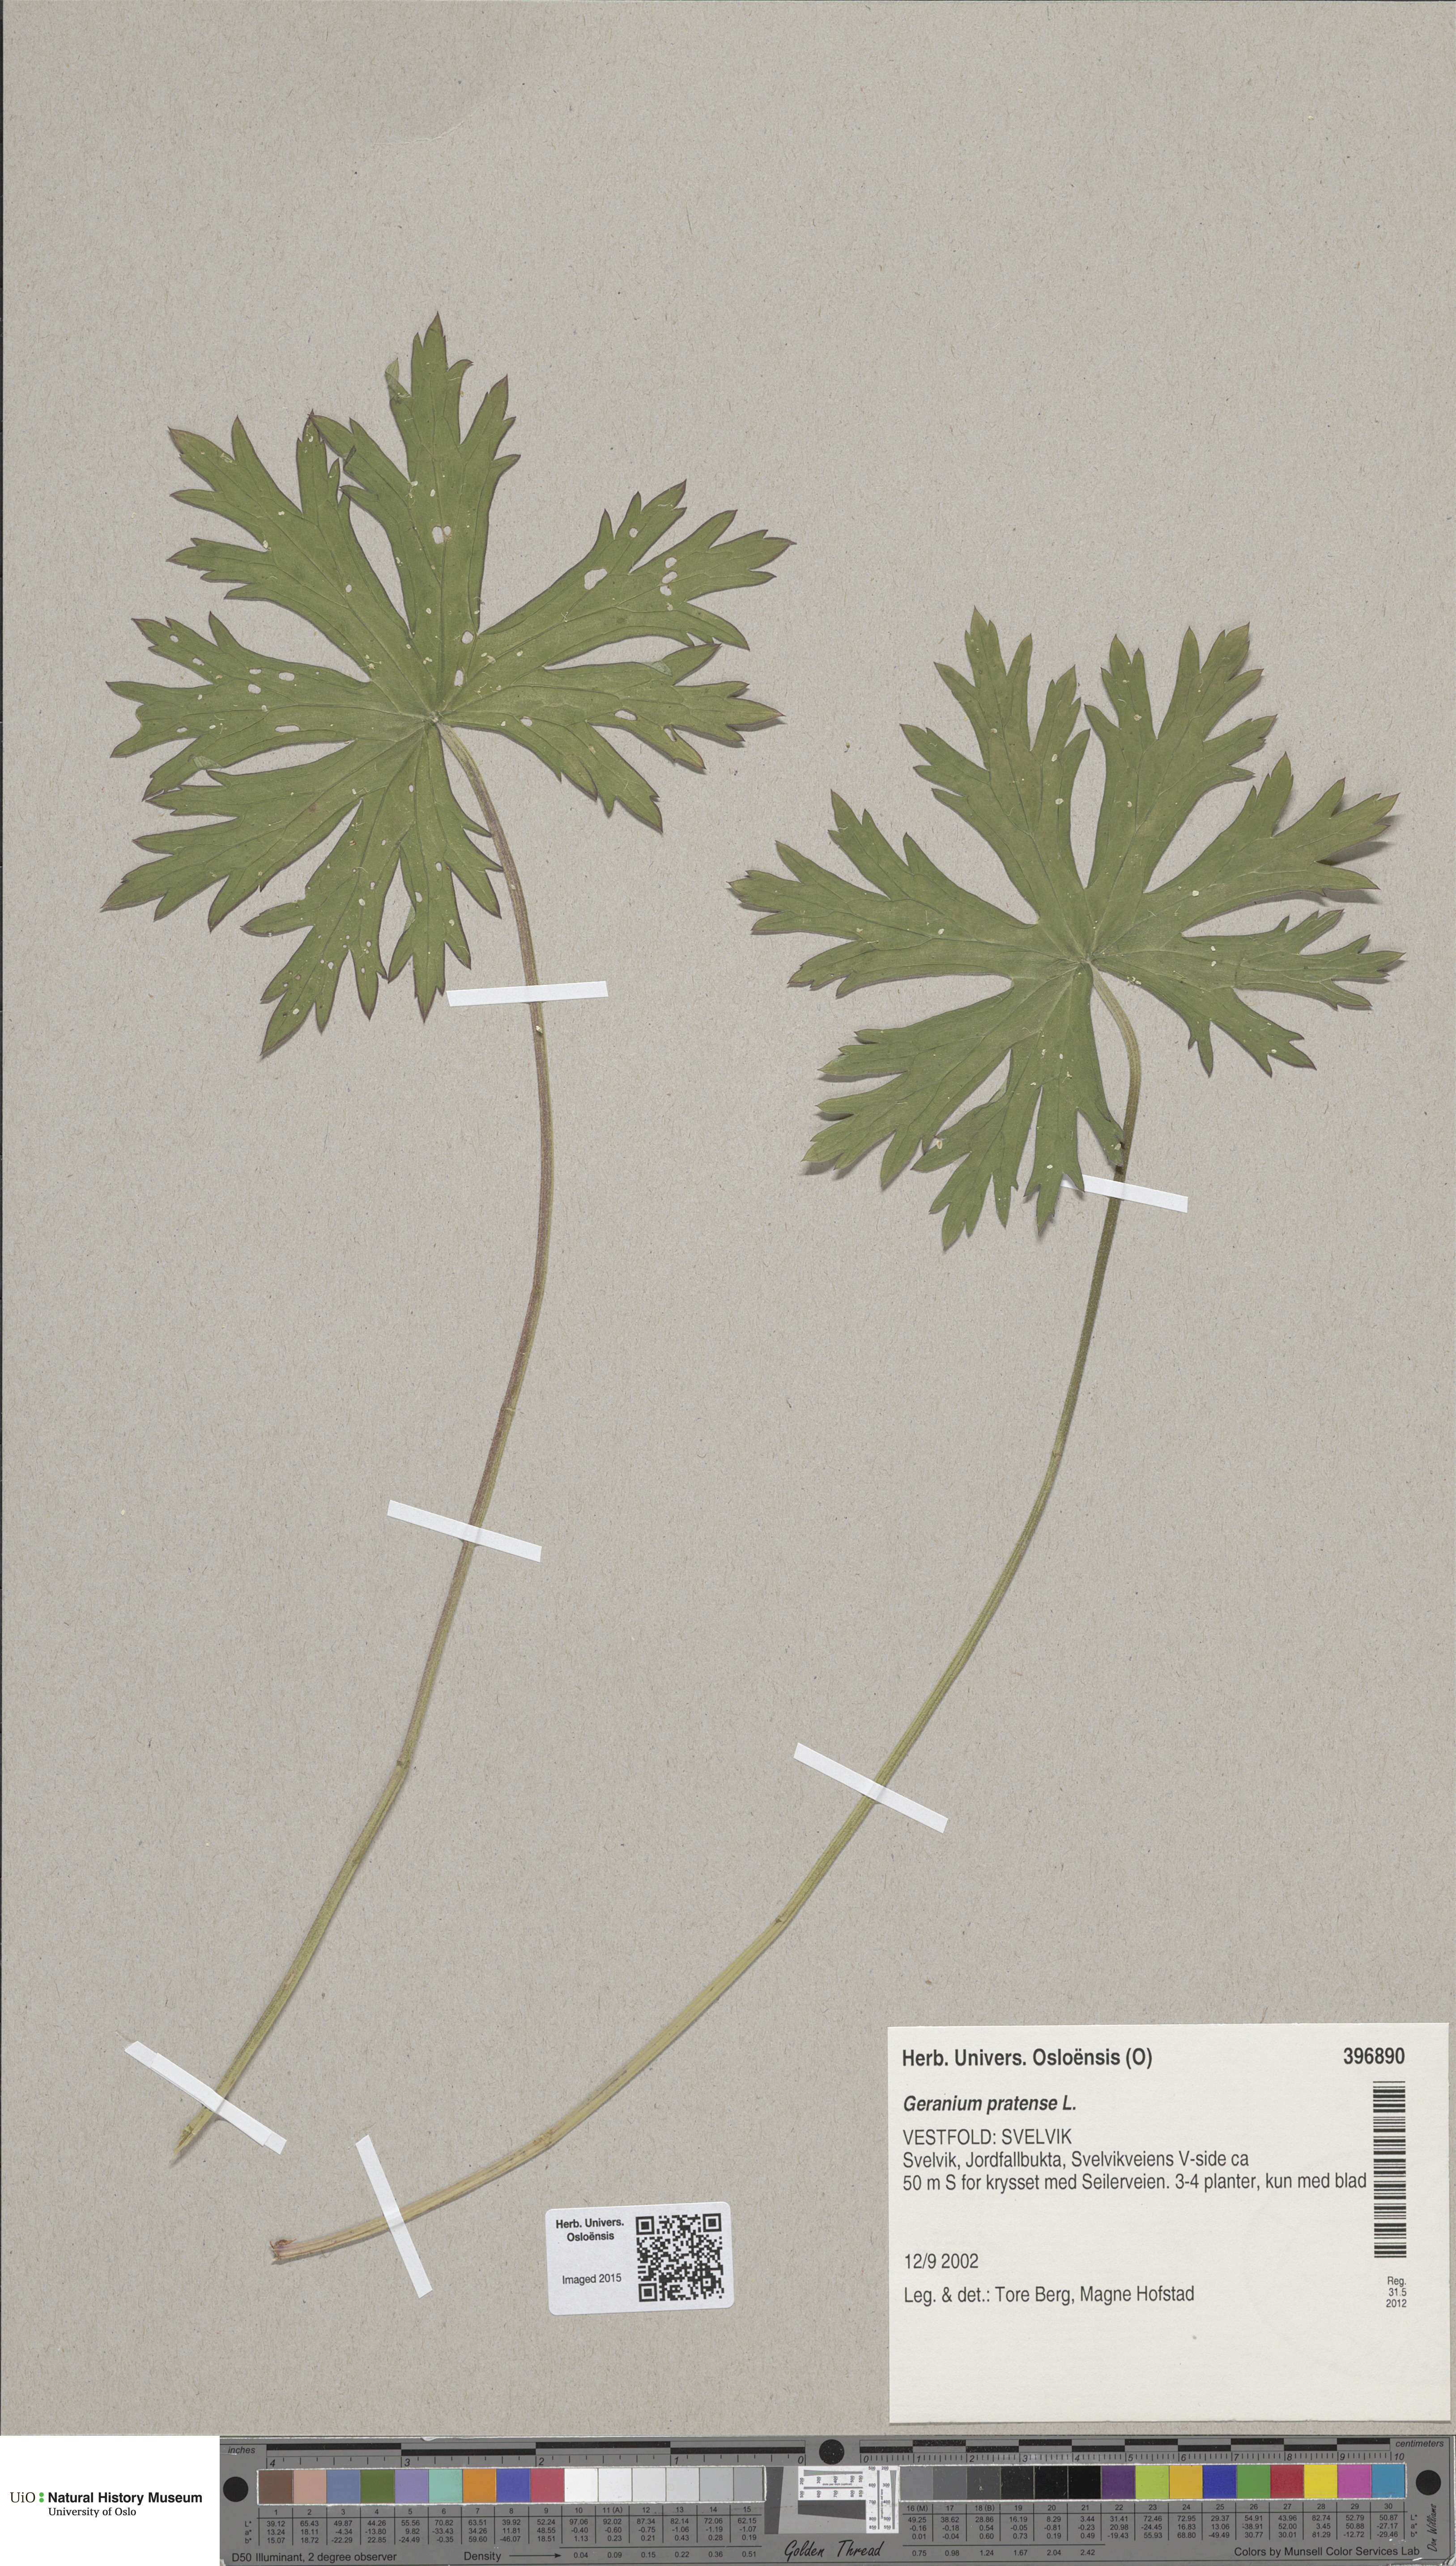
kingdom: Plantae
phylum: Tracheophyta
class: Magnoliopsida
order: Geraniales
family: Geraniaceae
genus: Geranium
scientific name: Geranium pratense
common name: Meadow crane's-bill
